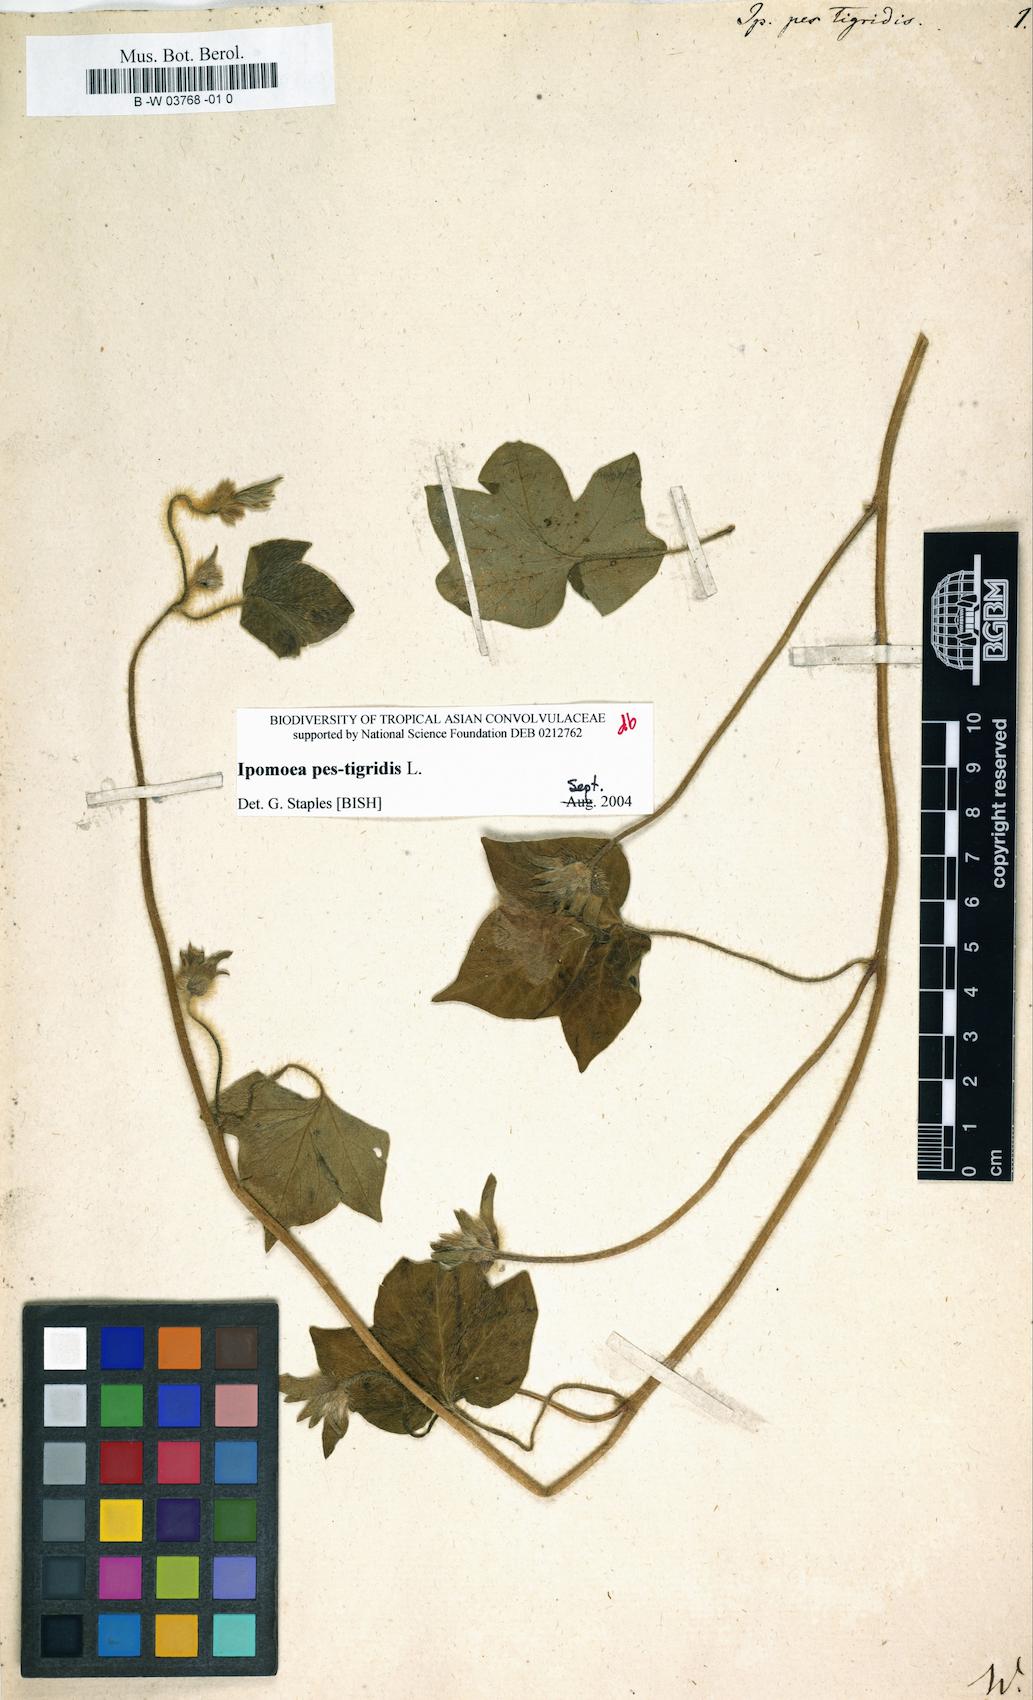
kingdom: Plantae
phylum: Tracheophyta
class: Magnoliopsida
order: Solanales
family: Convolvulaceae
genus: Ipomoea
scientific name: Ipomoea pes-tigridis
